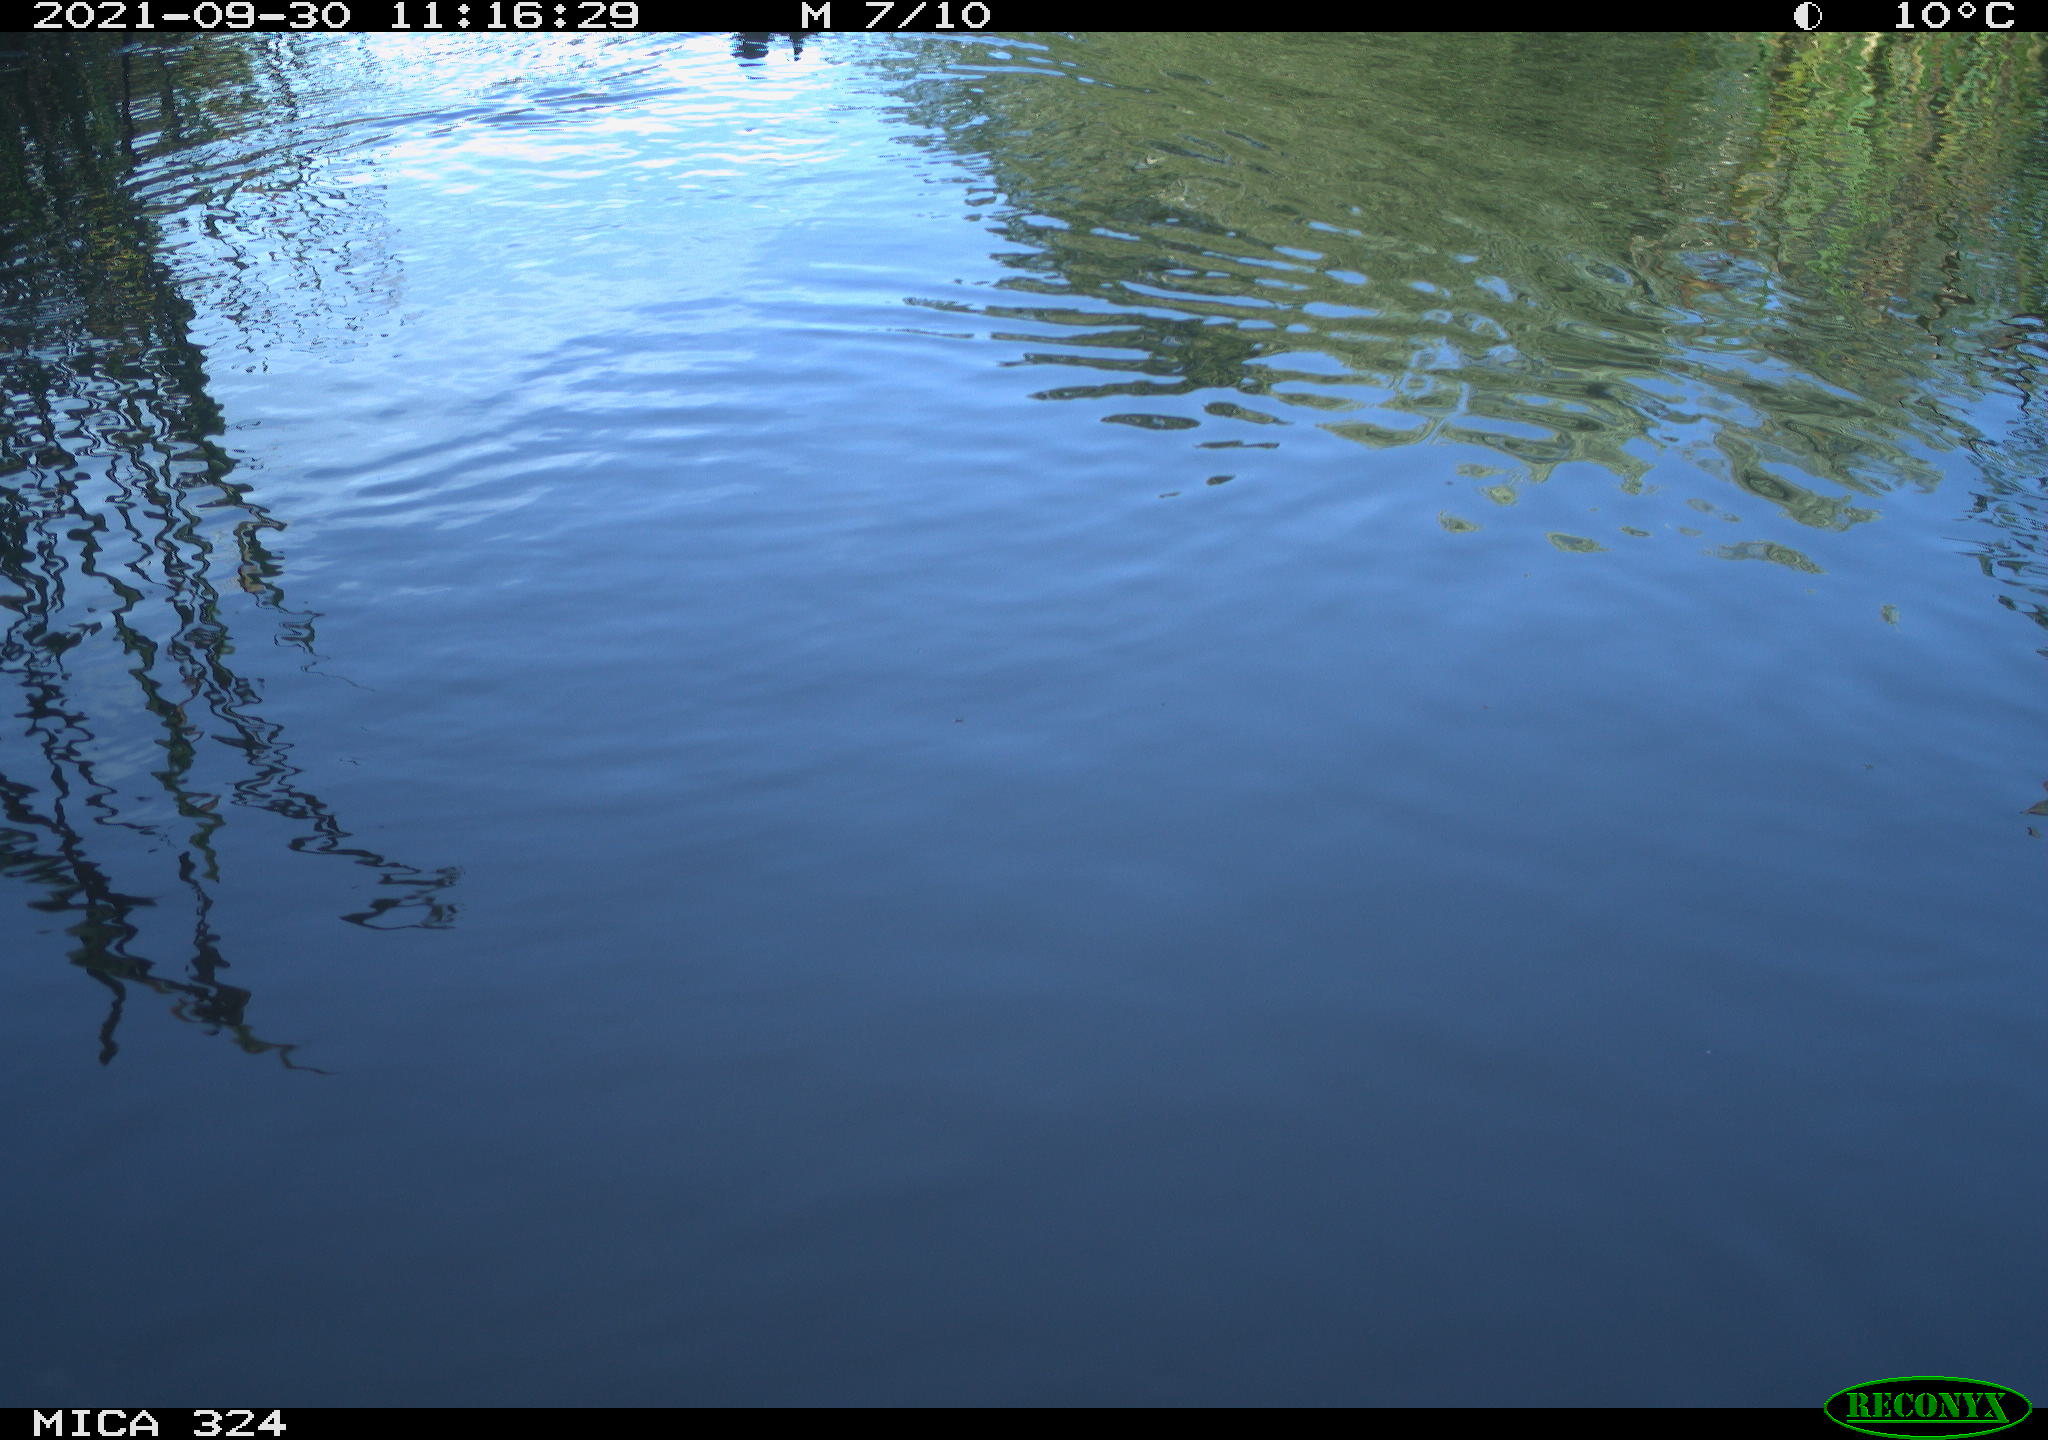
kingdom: Animalia
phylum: Chordata
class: Aves
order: Gruiformes
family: Rallidae
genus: Gallinula
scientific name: Gallinula chloropus
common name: Common moorhen
